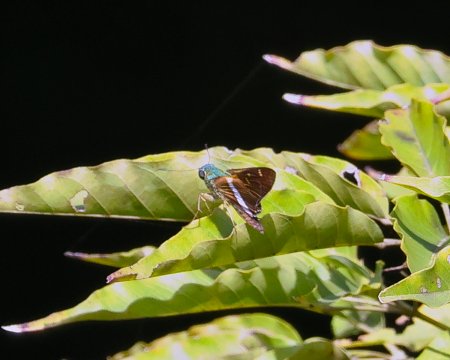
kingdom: Animalia
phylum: Arthropoda
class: Insecta
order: Lepidoptera
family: Hesperiidae
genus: Oxynthes
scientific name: Oxynthes corusca
